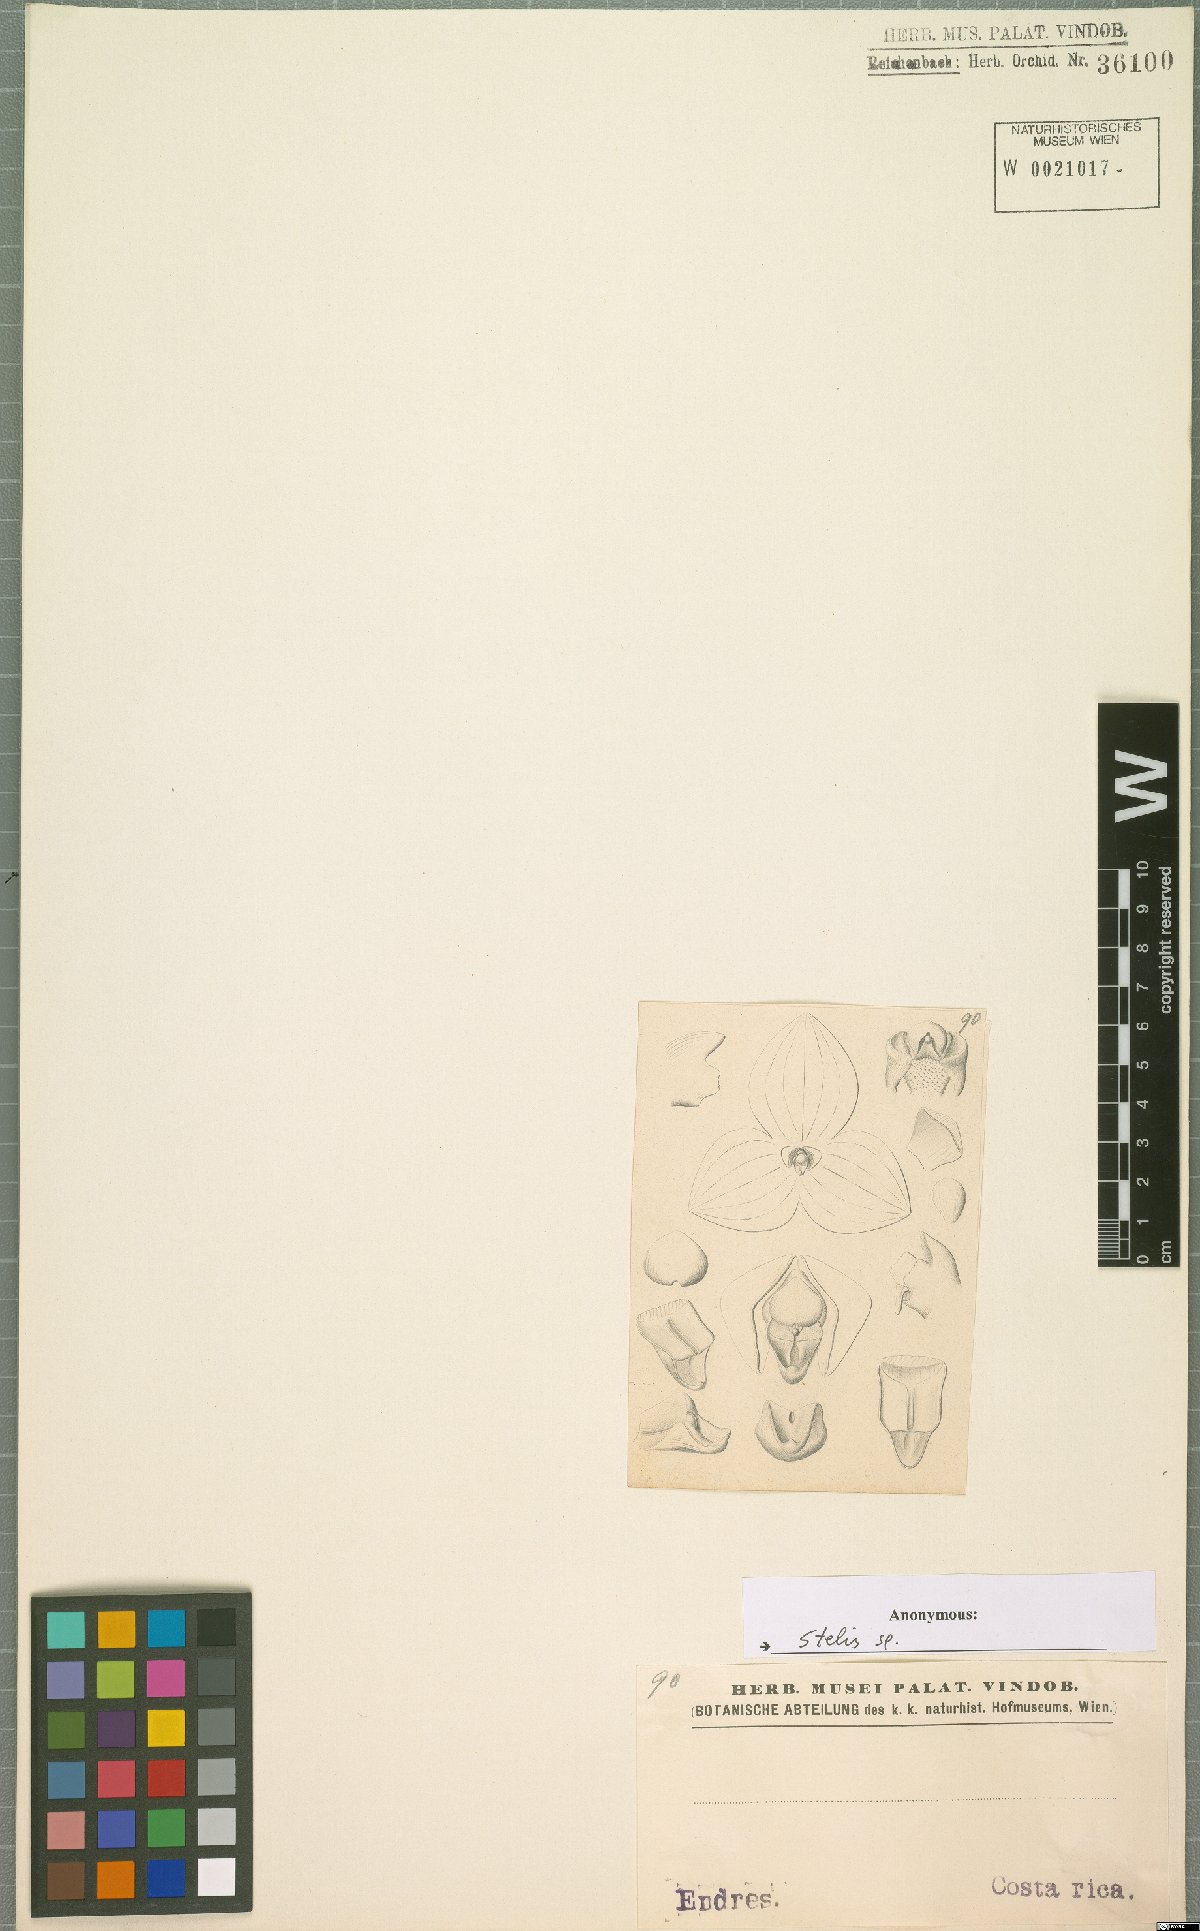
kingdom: Plantae
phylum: Tracheophyta
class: Liliopsida
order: Asparagales
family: Orchidaceae
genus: Stelis
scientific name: Stelis
